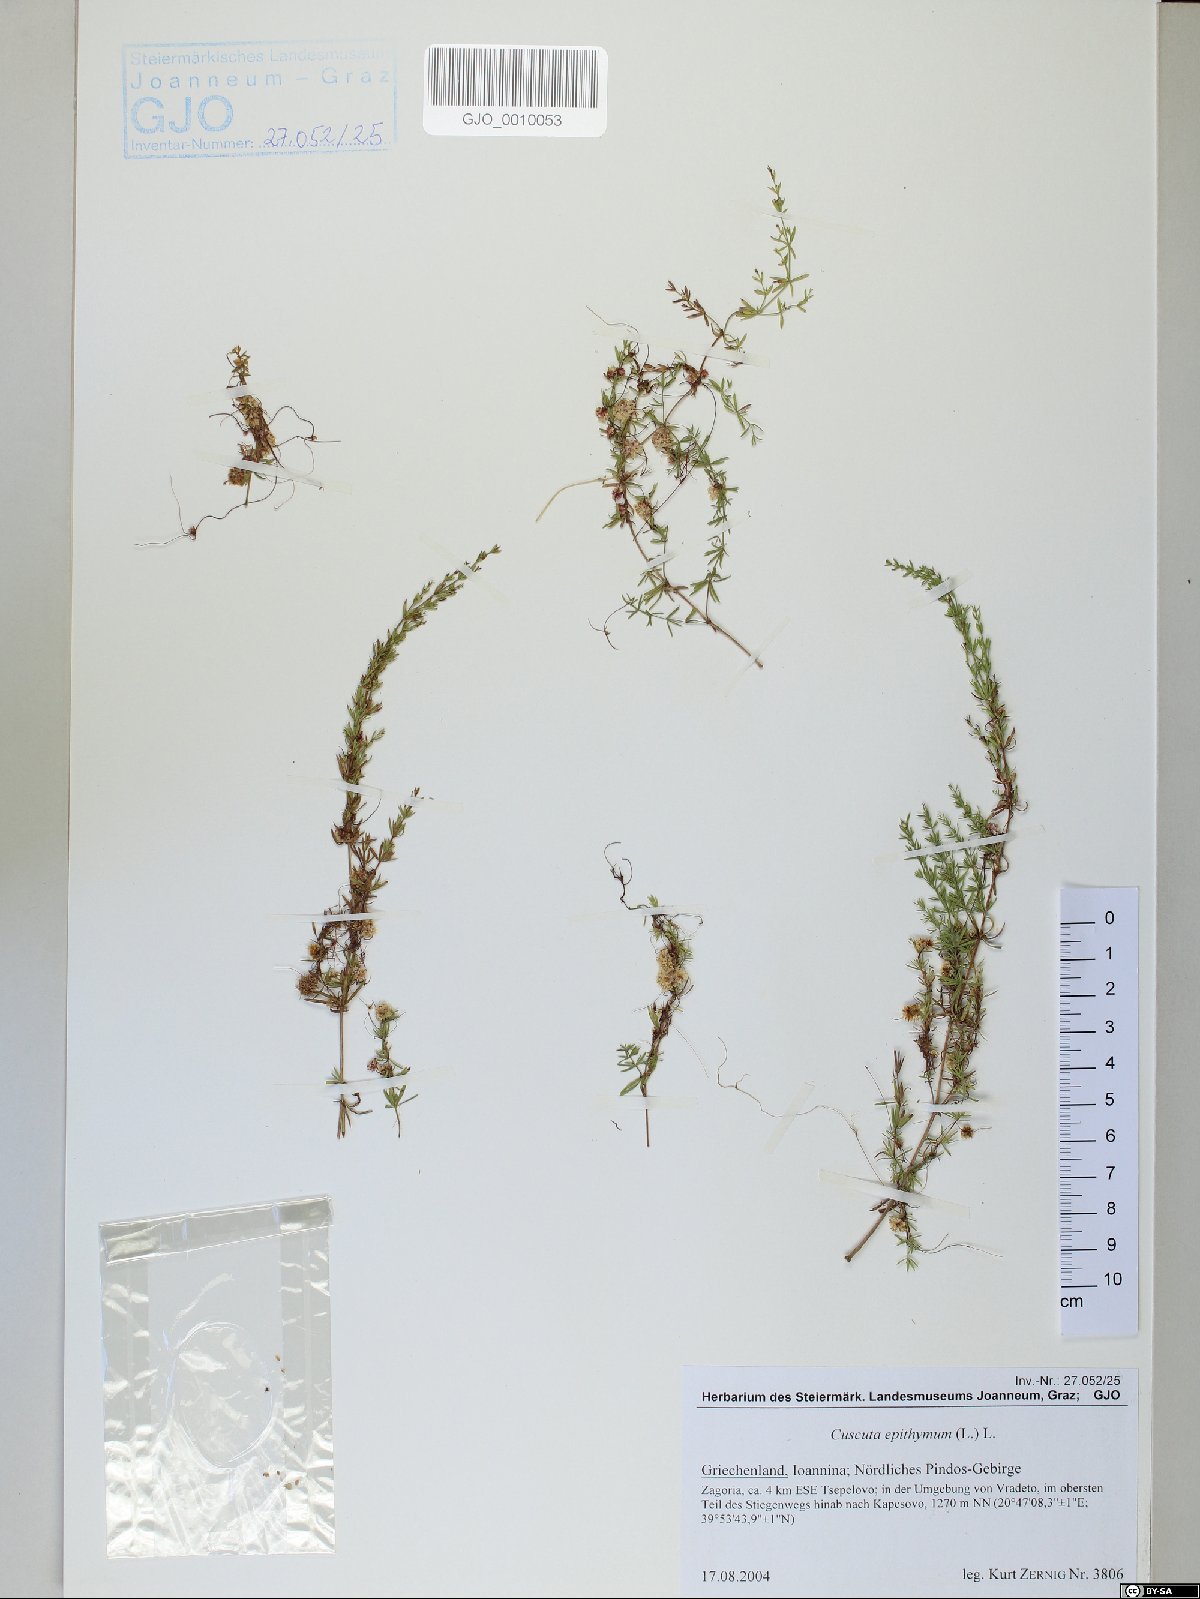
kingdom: Plantae
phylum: Tracheophyta
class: Magnoliopsida
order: Solanales
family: Convolvulaceae
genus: Cuscuta
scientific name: Cuscuta epithymum
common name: Clover dodder
